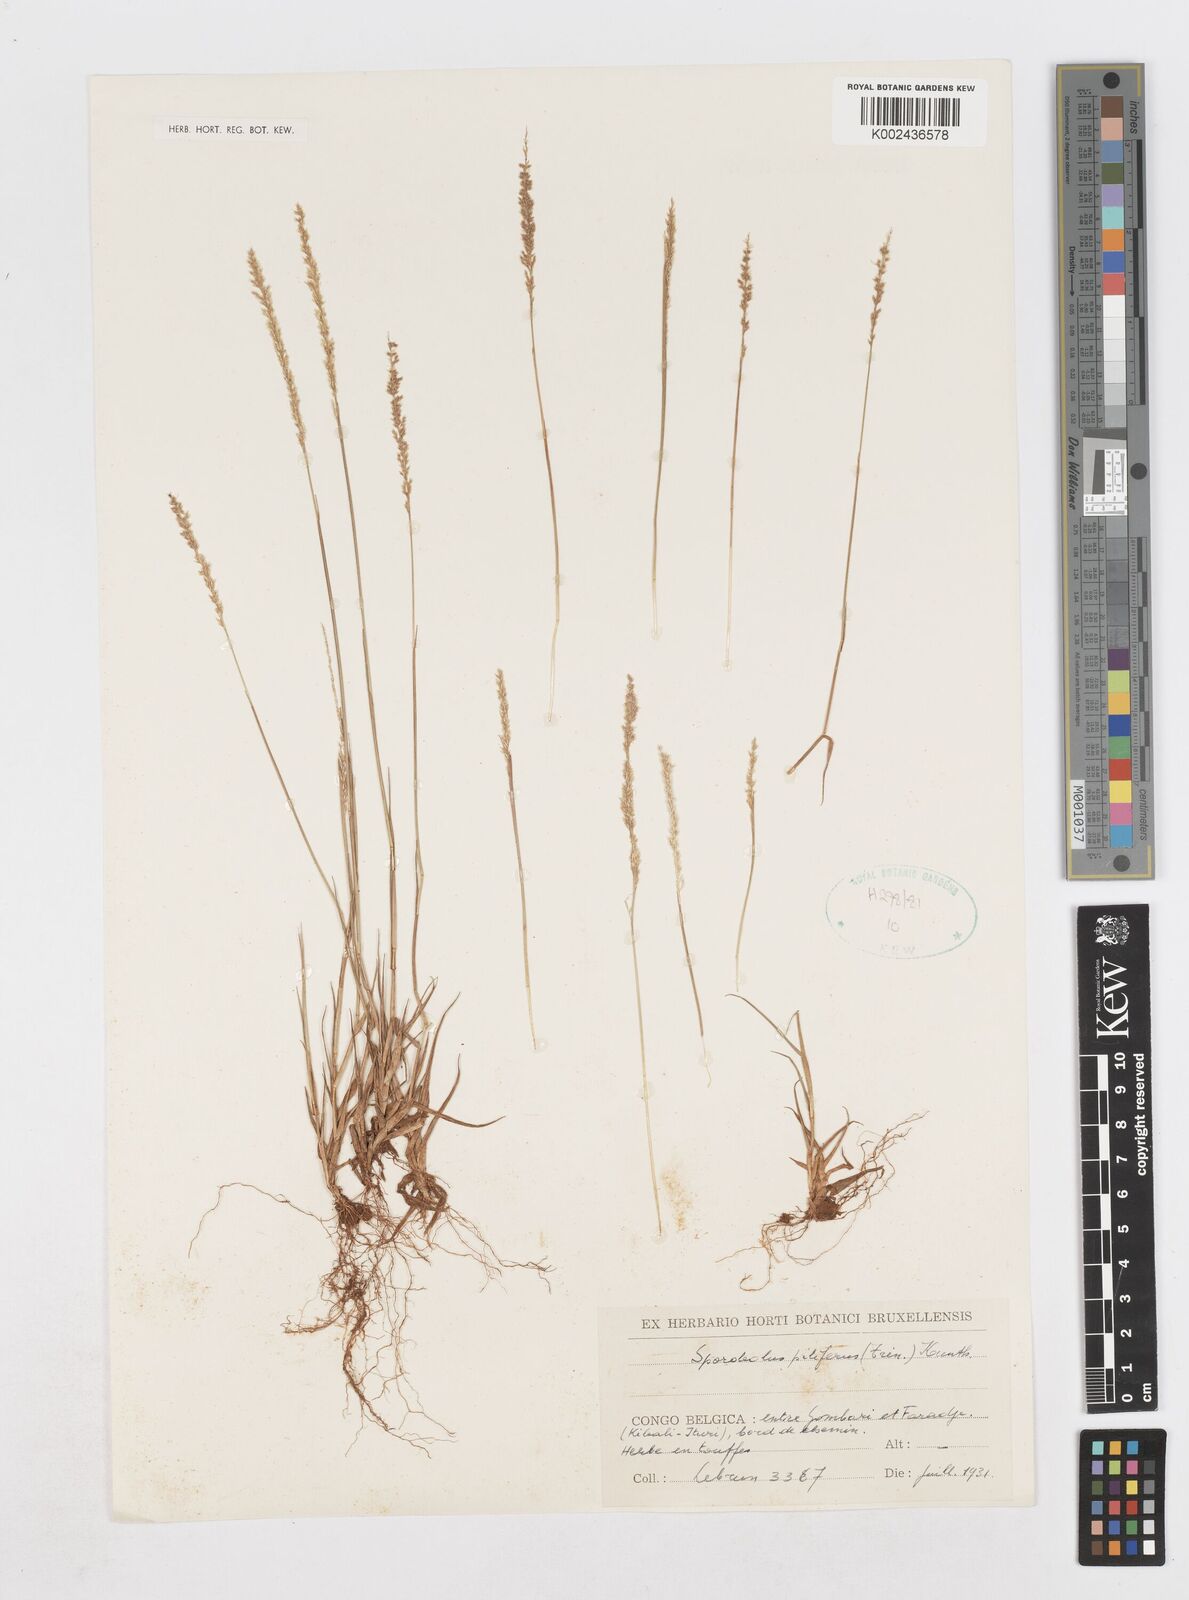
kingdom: Plantae
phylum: Tracheophyta
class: Liliopsida
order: Poales
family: Poaceae
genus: Sporobolus
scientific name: Sporobolus pilifer
